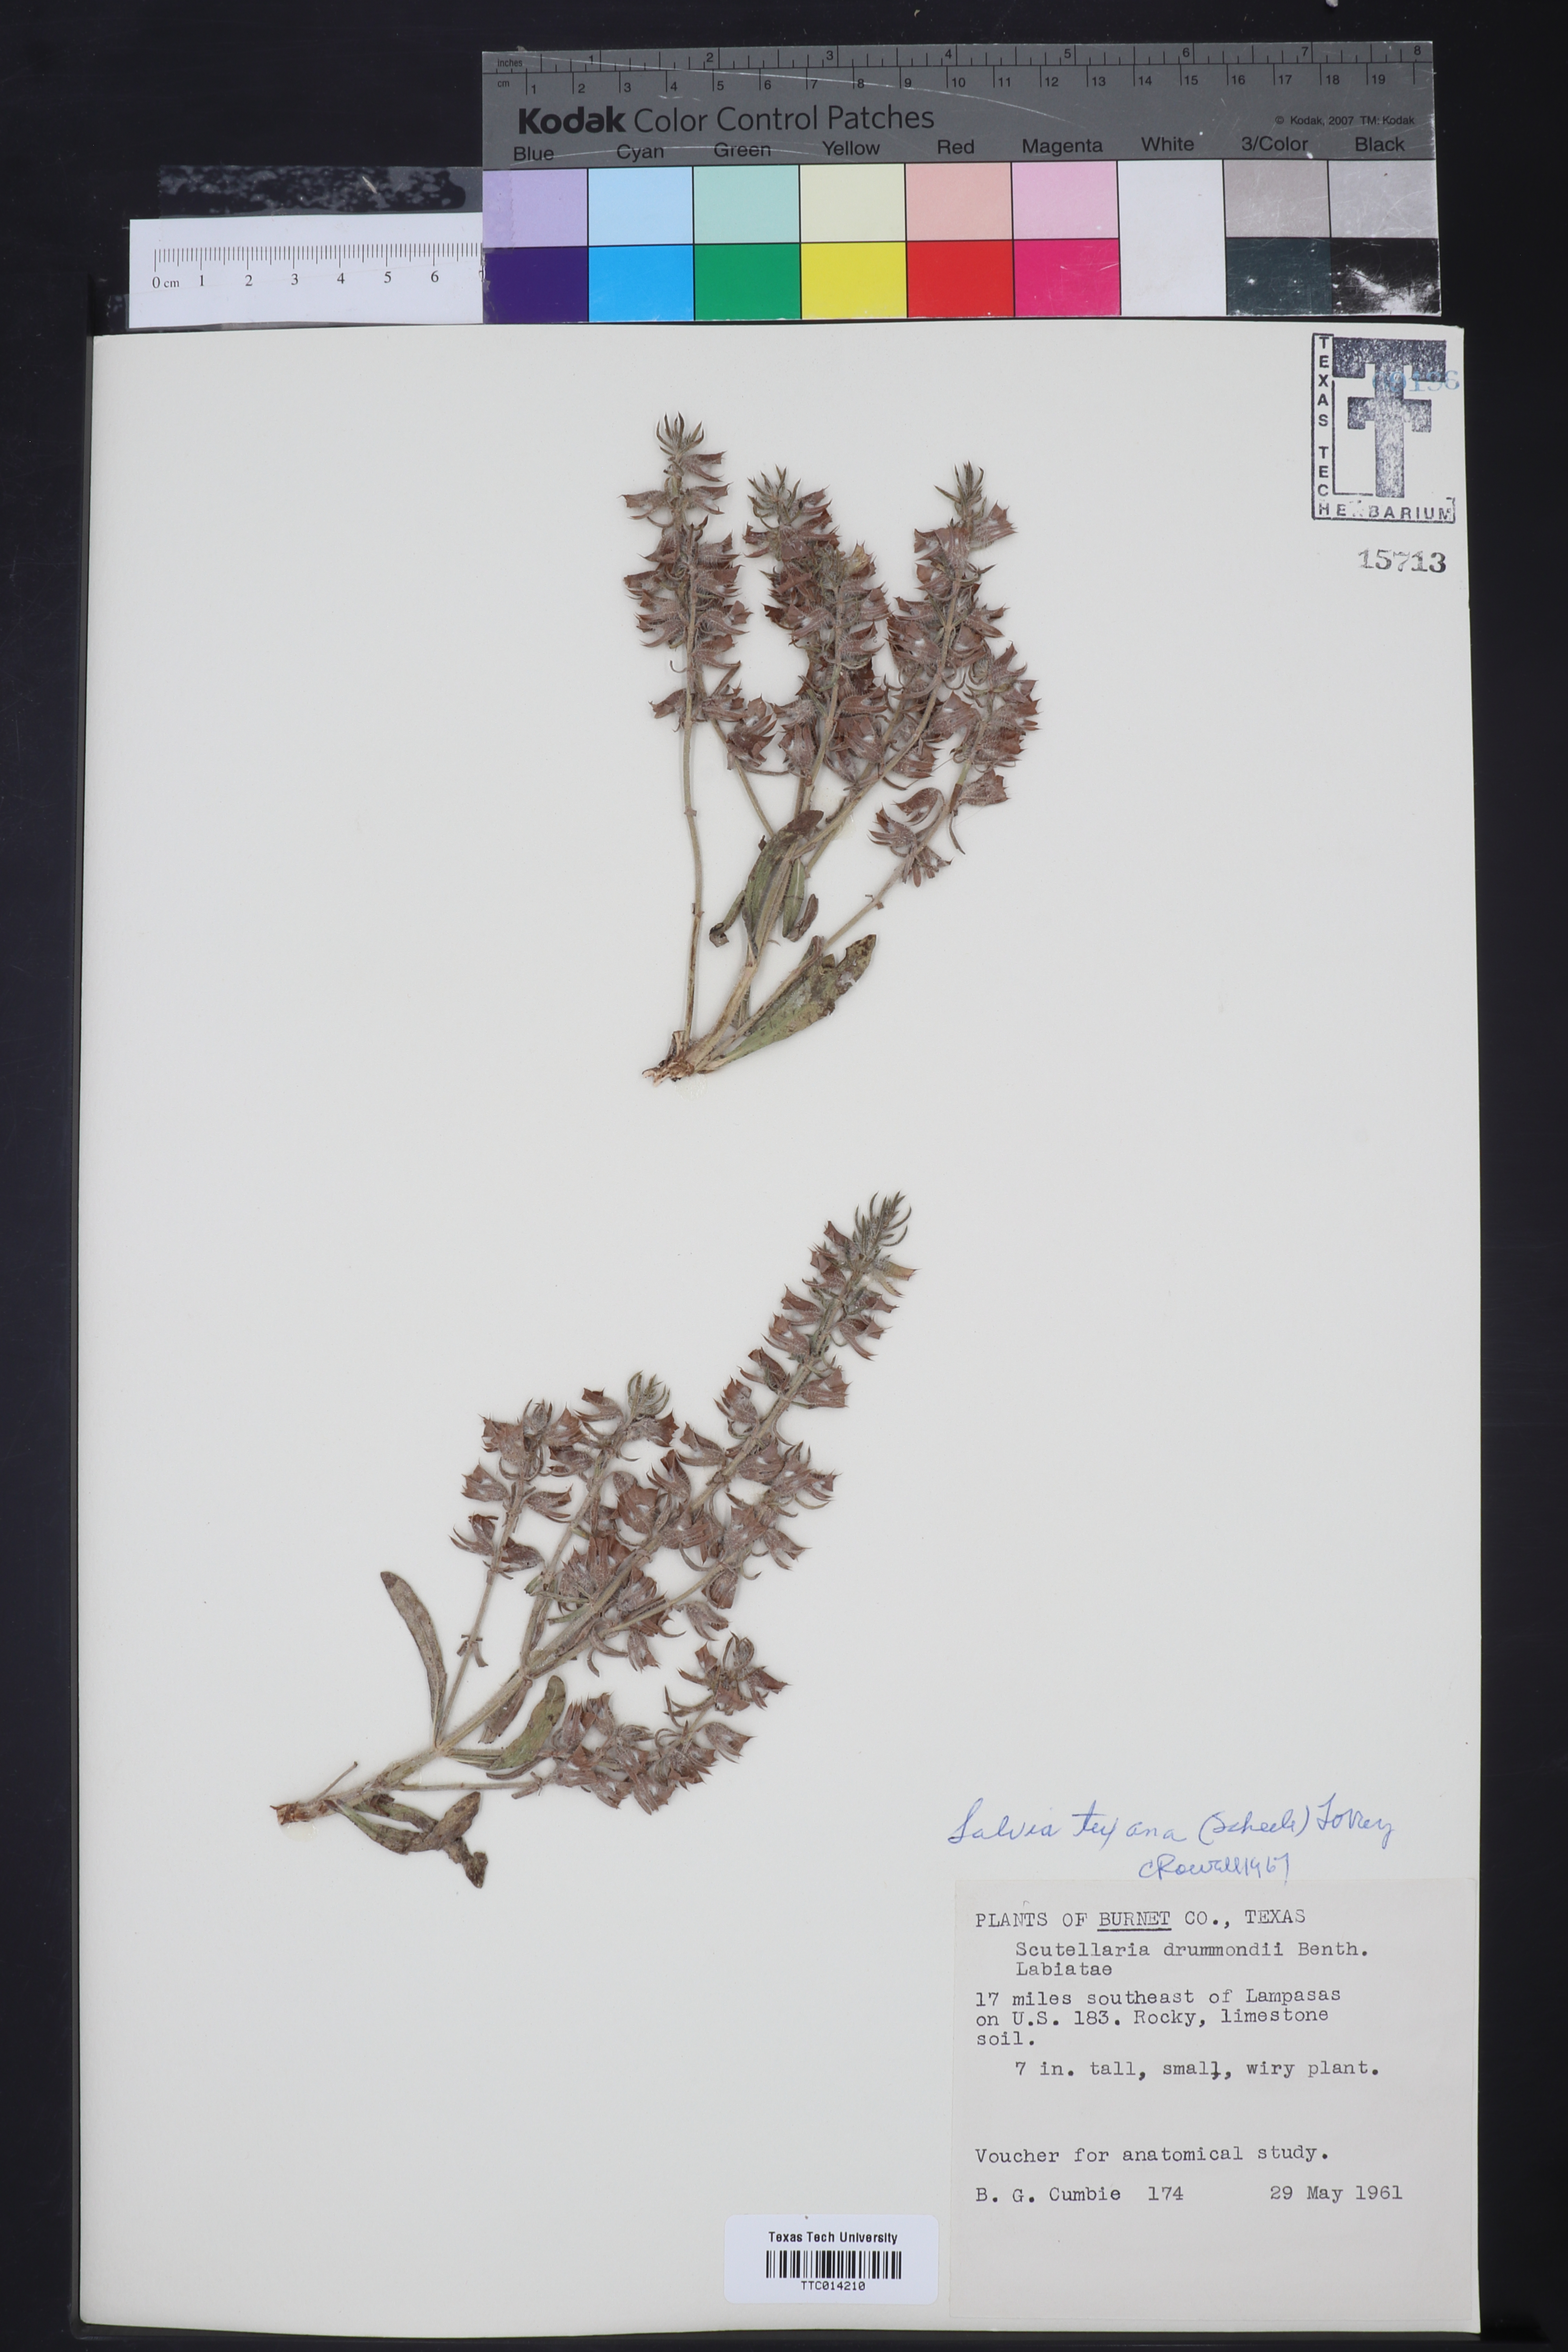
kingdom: Plantae
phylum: Tracheophyta
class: Magnoliopsida
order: Lamiales
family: Lamiaceae
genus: Salvia
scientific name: Salvia texana
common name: Texas sage
